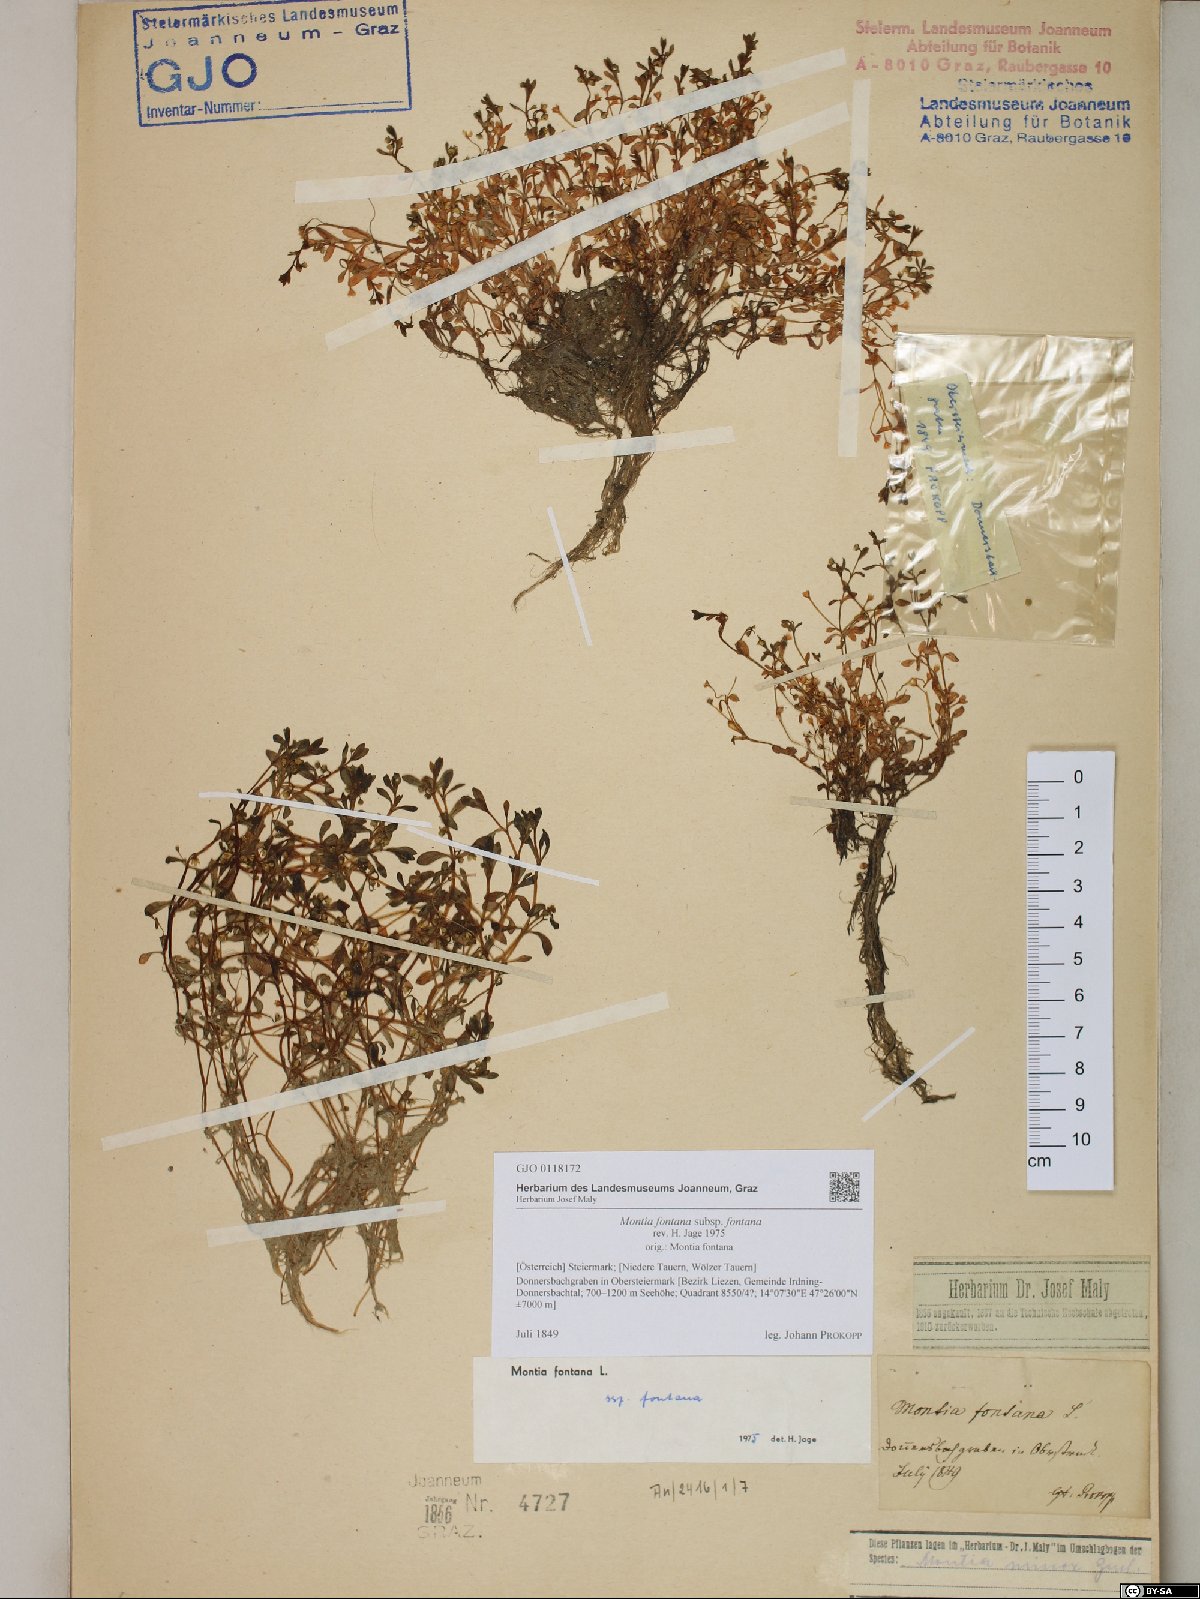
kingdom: Plantae
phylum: Tracheophyta
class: Magnoliopsida
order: Caryophyllales
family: Montiaceae
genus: Montia
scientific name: Montia fontana
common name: Blinks
